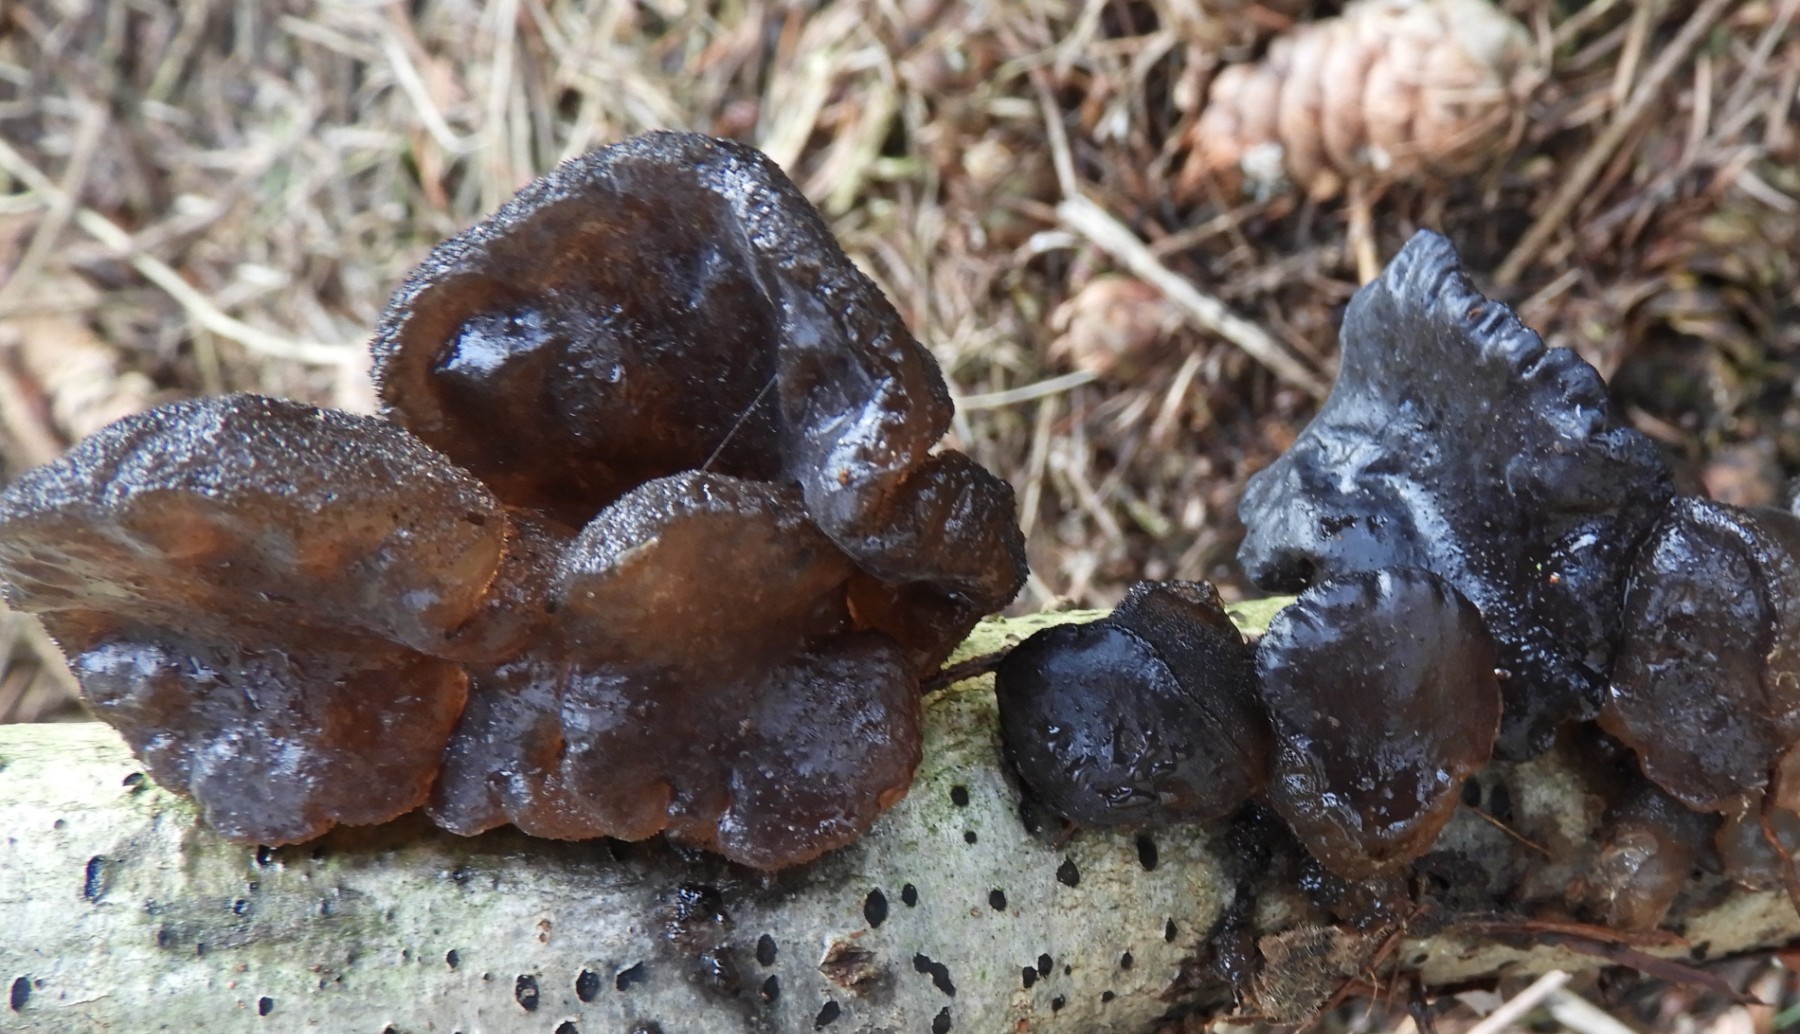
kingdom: Fungi
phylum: Basidiomycota
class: Agaricomycetes
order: Auriculariales
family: Auriculariaceae
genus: Exidia
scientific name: Exidia glandulosa
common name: ege-bævretop
